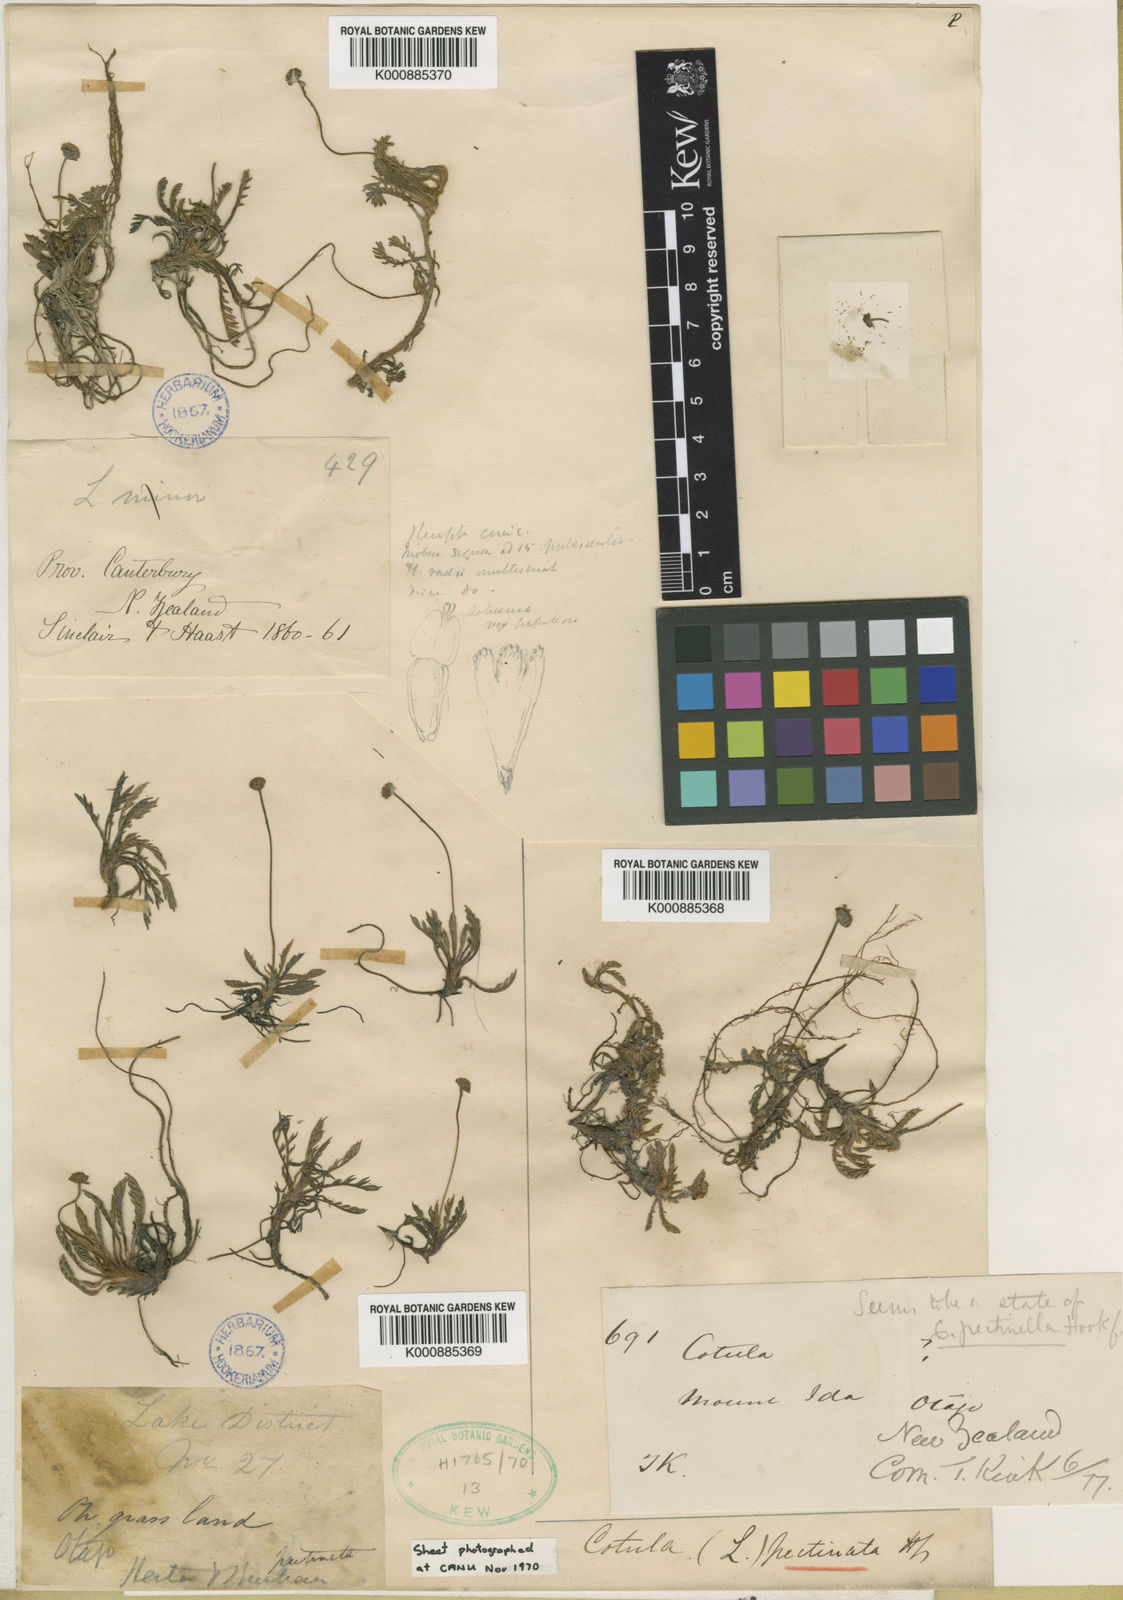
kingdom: Plantae
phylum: Tracheophyta
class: Magnoliopsida
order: Asterales
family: Asteraceae
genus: Leptinella
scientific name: Leptinella
